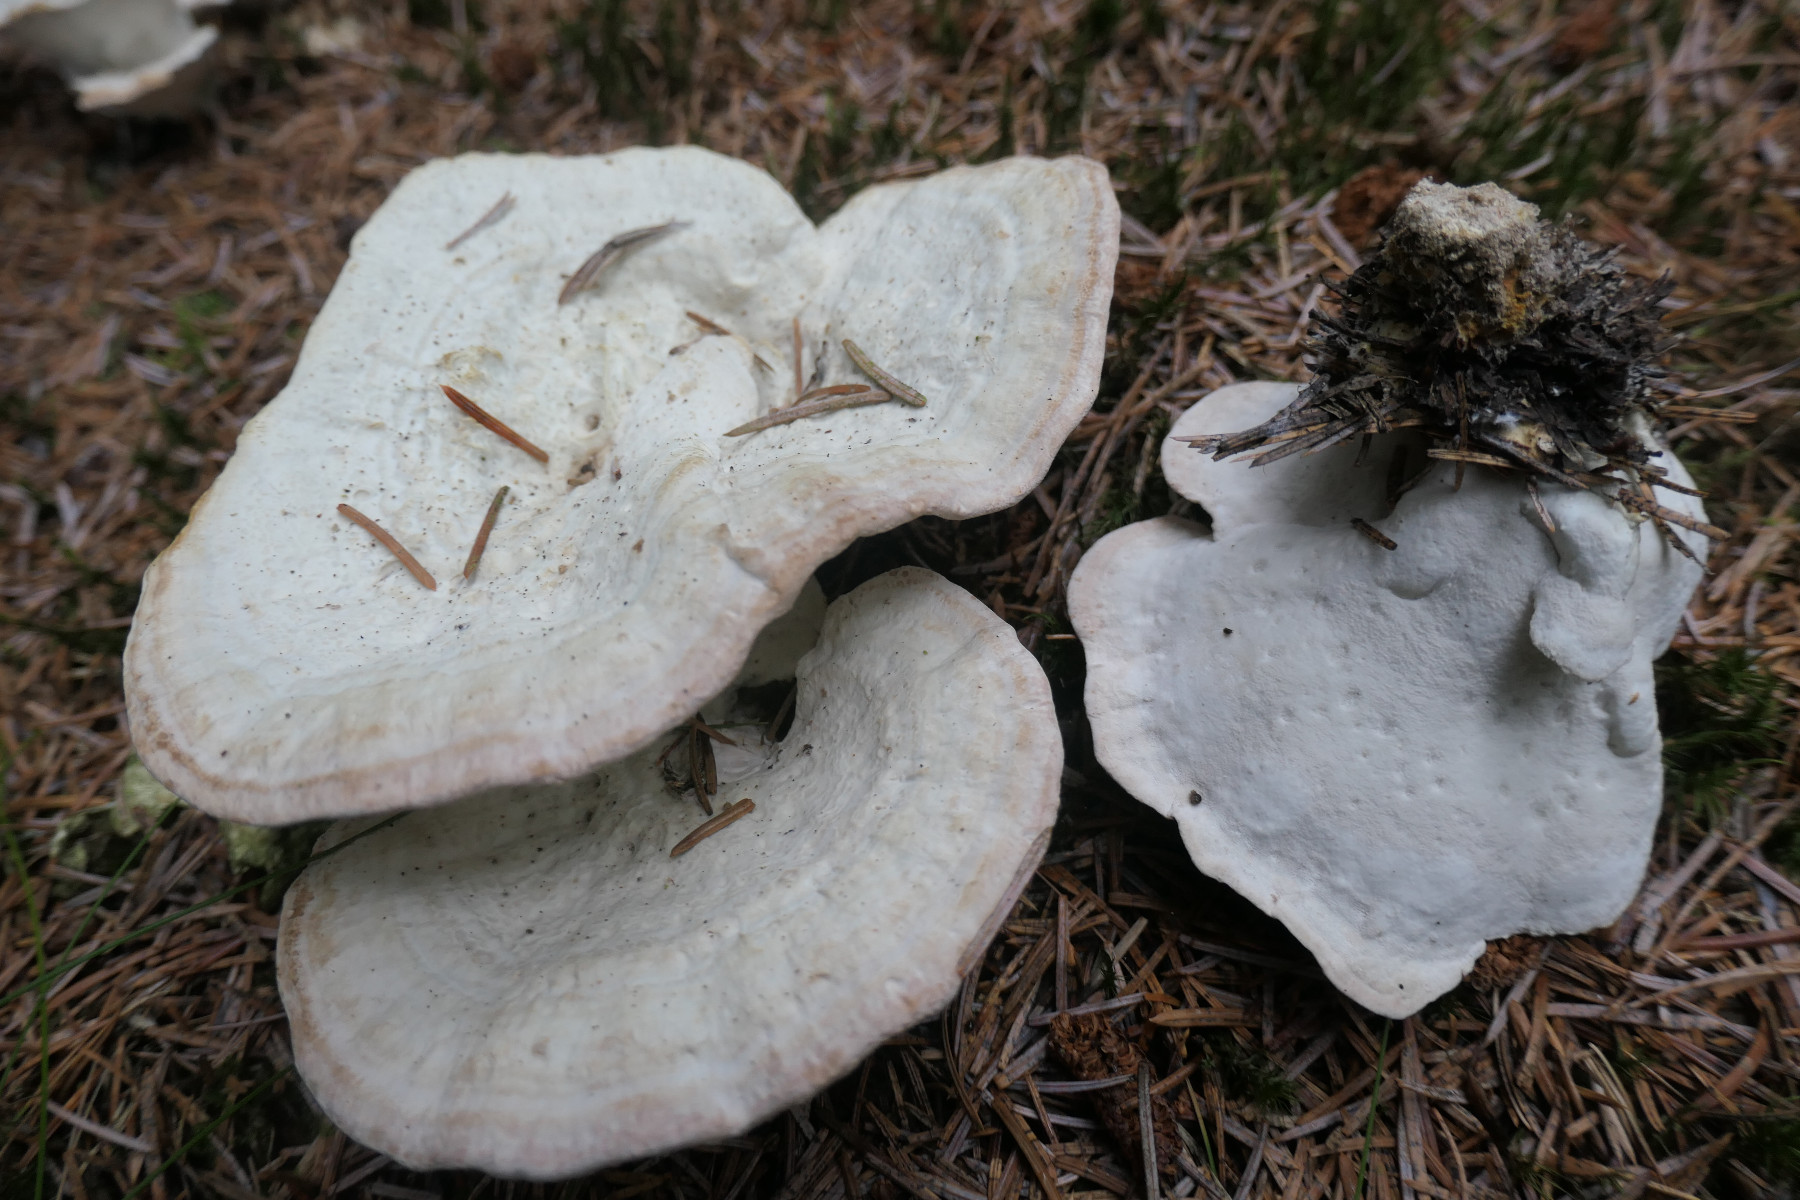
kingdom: Fungi
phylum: Basidiomycota
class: Agaricomycetes
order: Polyporales
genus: Calcipostia
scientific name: Calcipostia guttulata
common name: dråbe-kødporesvamp
